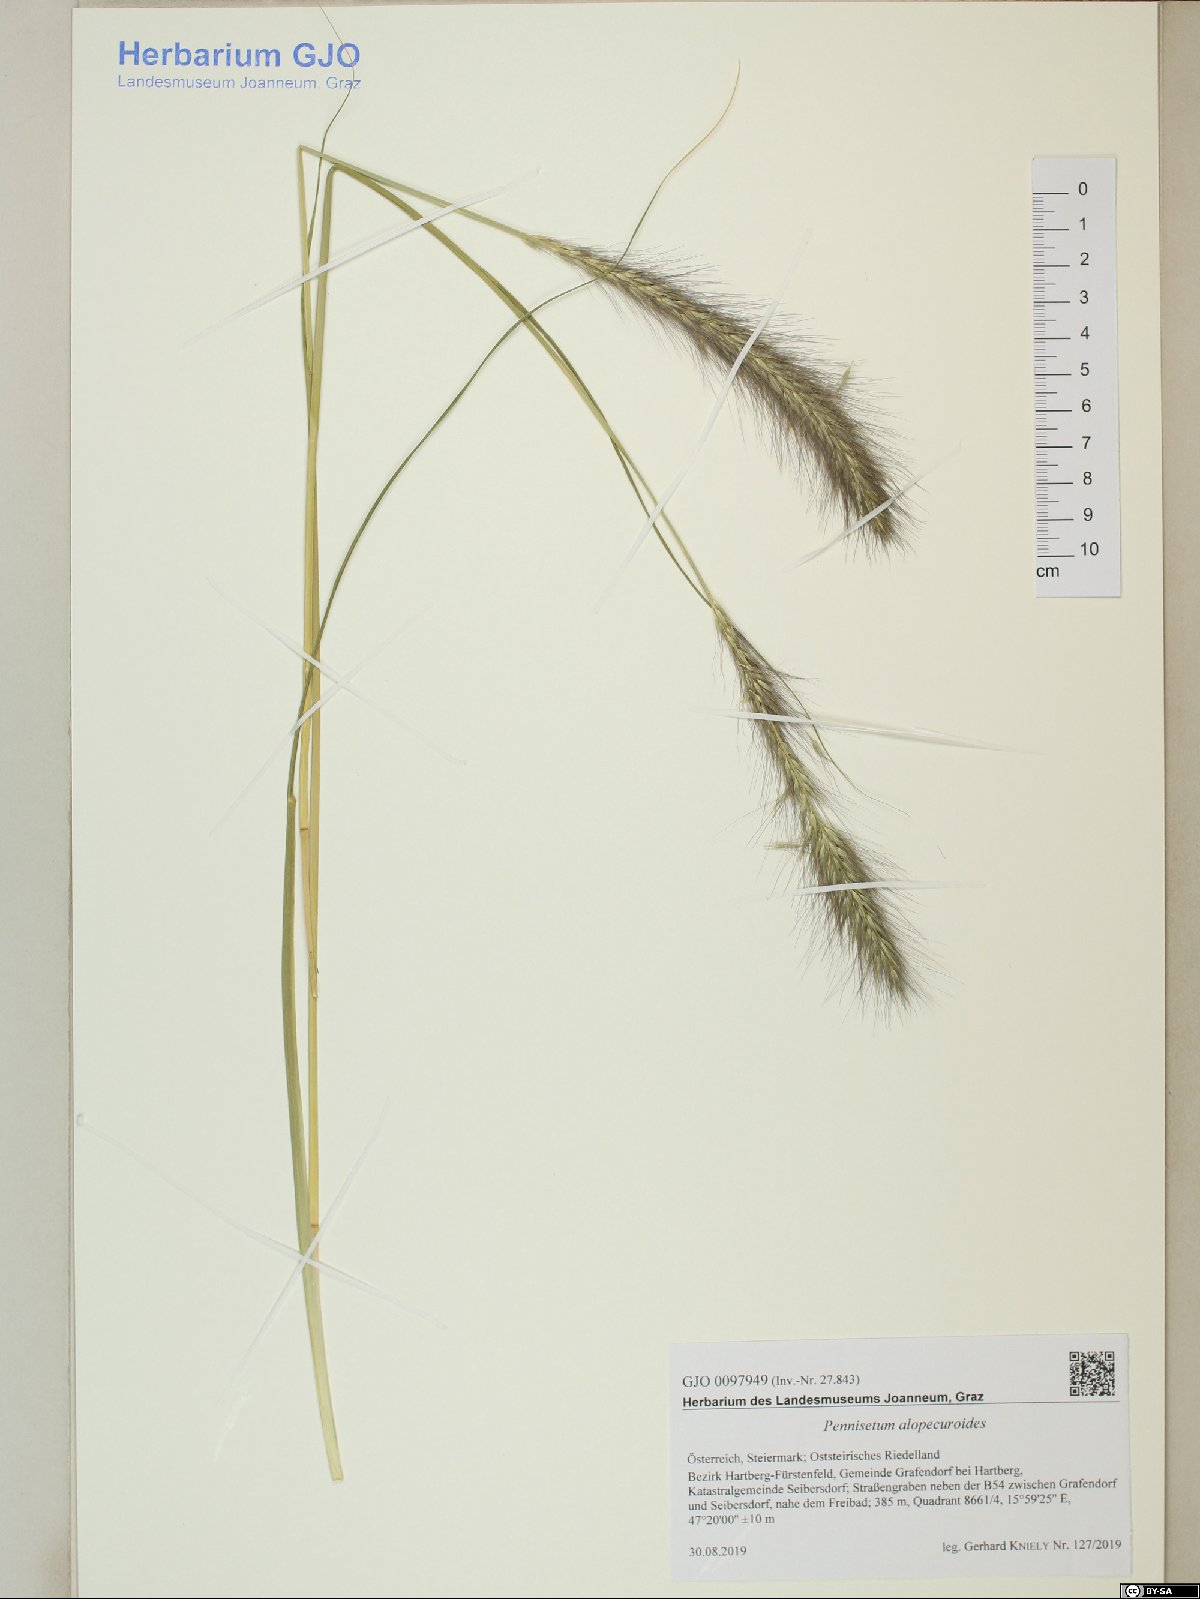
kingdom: Plantae
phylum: Tracheophyta
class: Liliopsida
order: Poales
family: Poaceae
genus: Cenchrus
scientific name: Cenchrus alopecuroides
